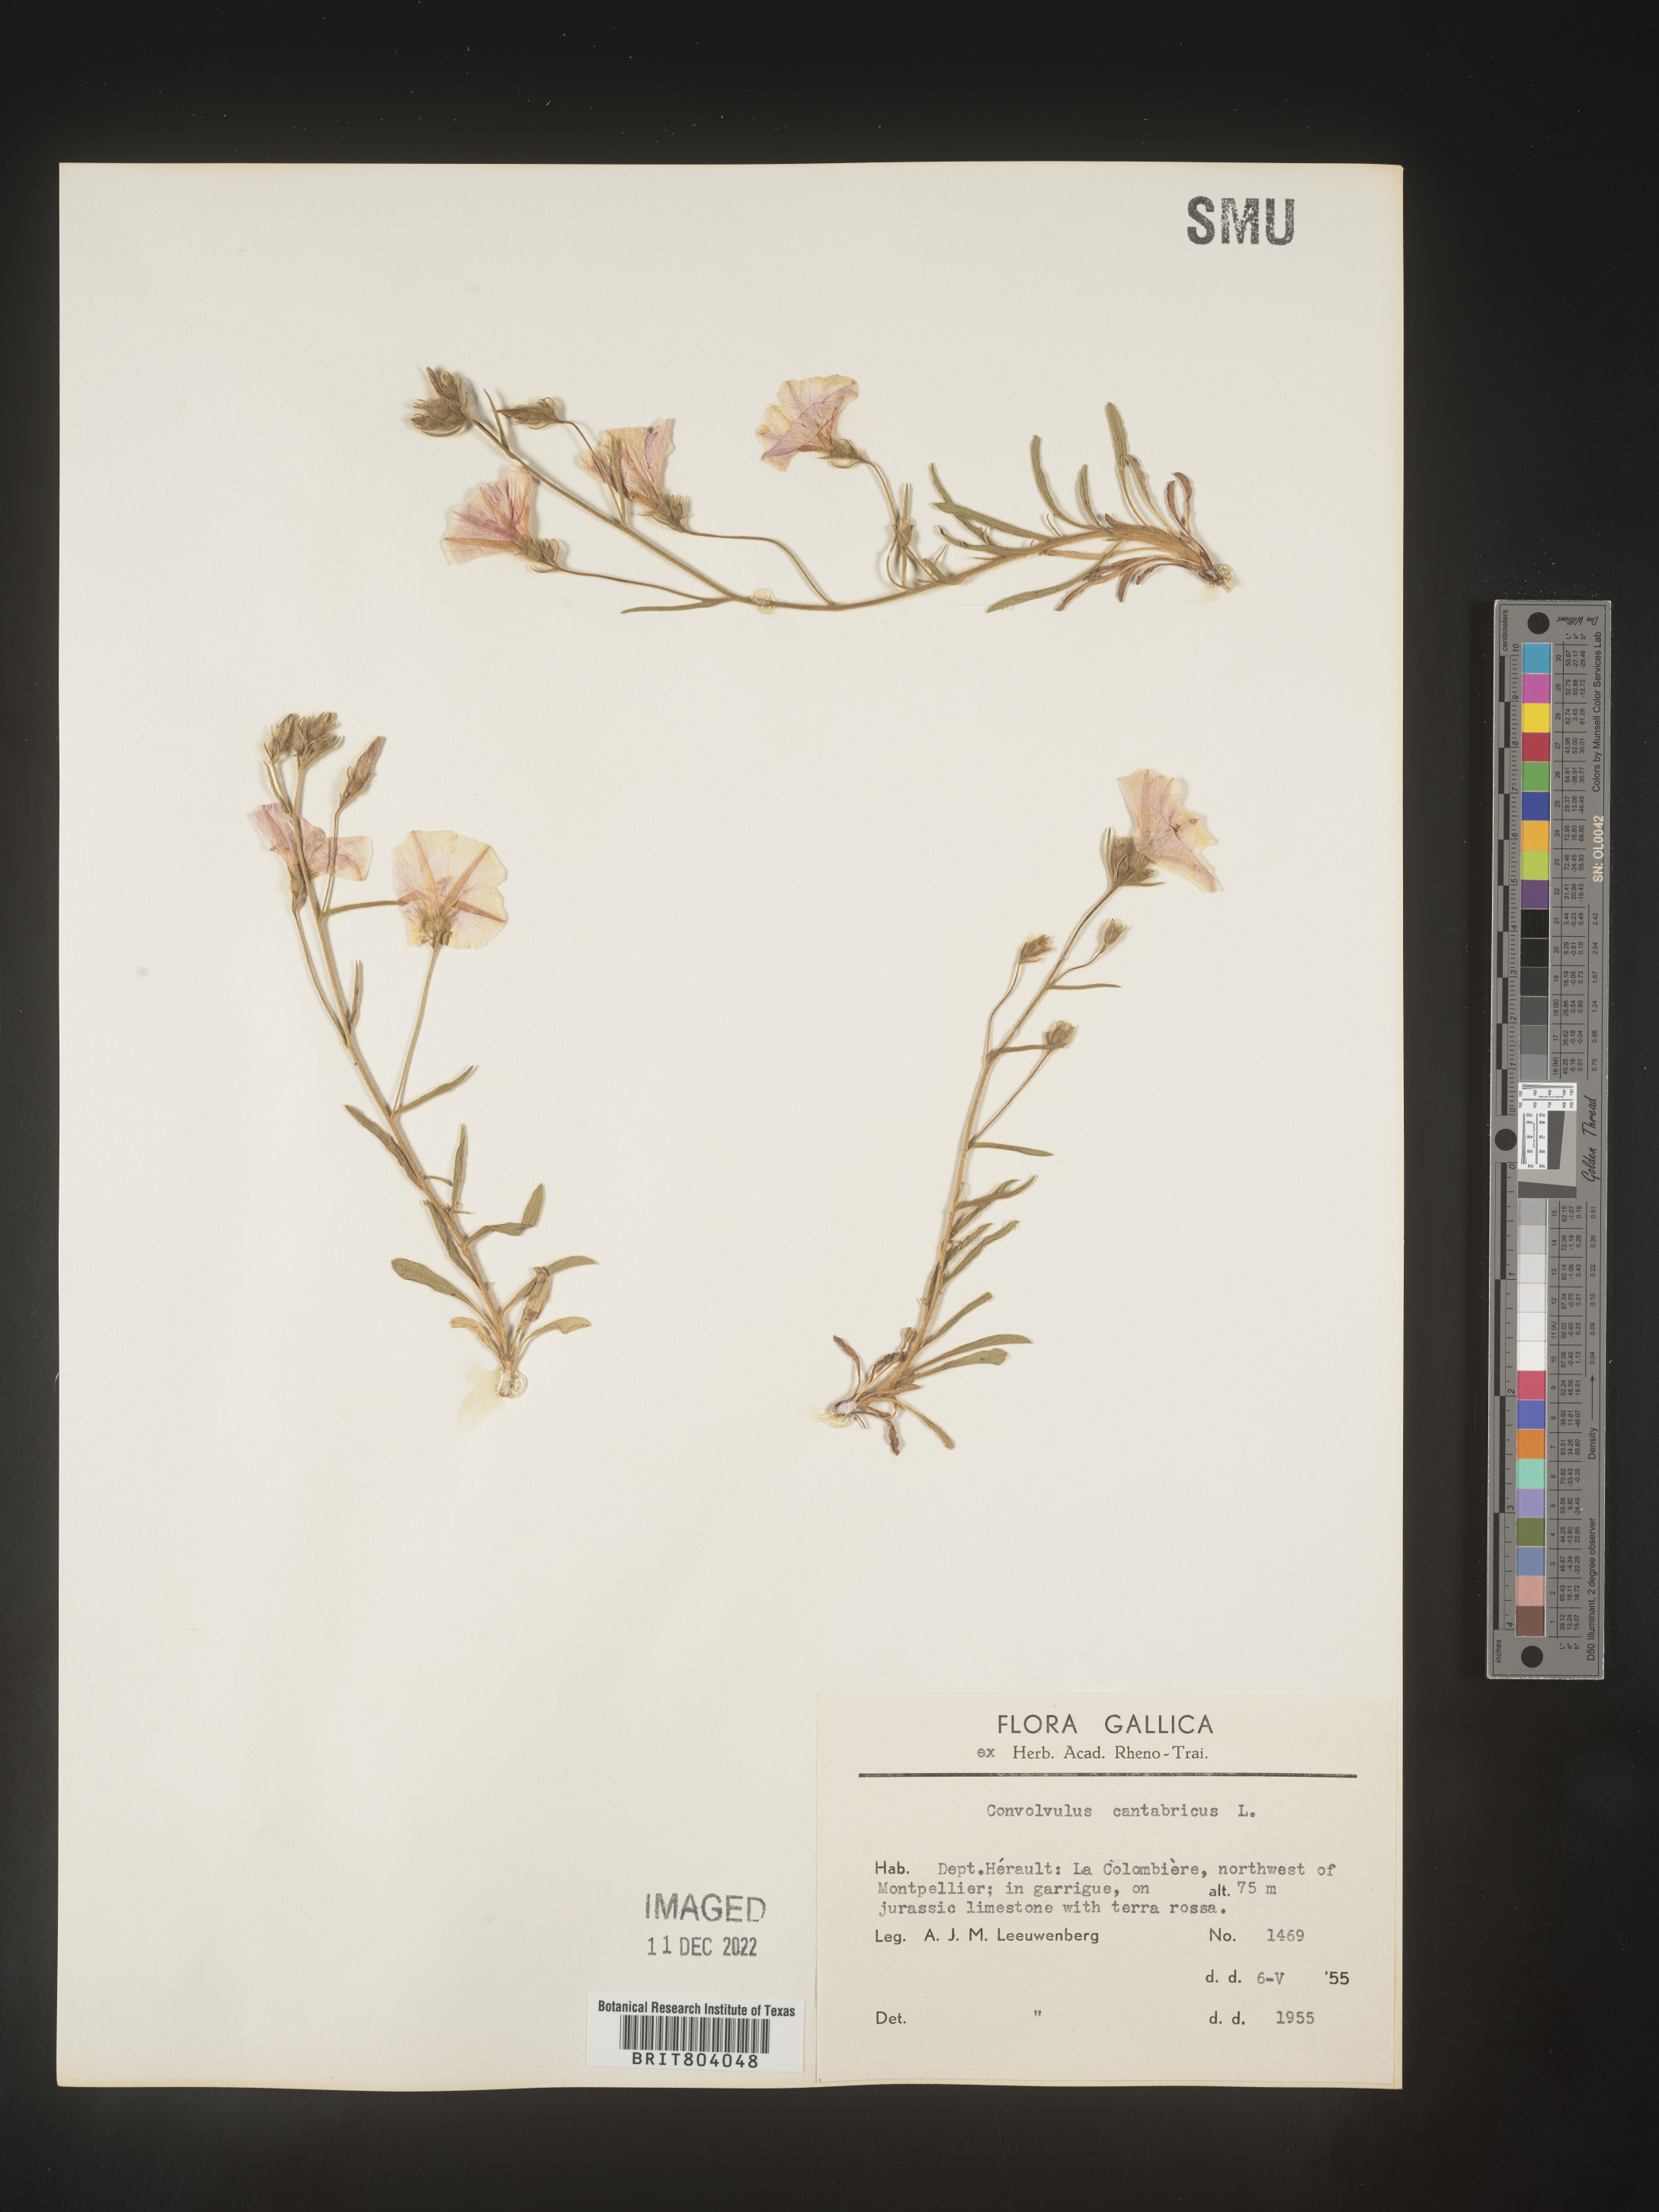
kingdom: Plantae
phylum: Tracheophyta
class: Magnoliopsida
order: Solanales
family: Convolvulaceae
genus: Convolvulus
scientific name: Convolvulus
